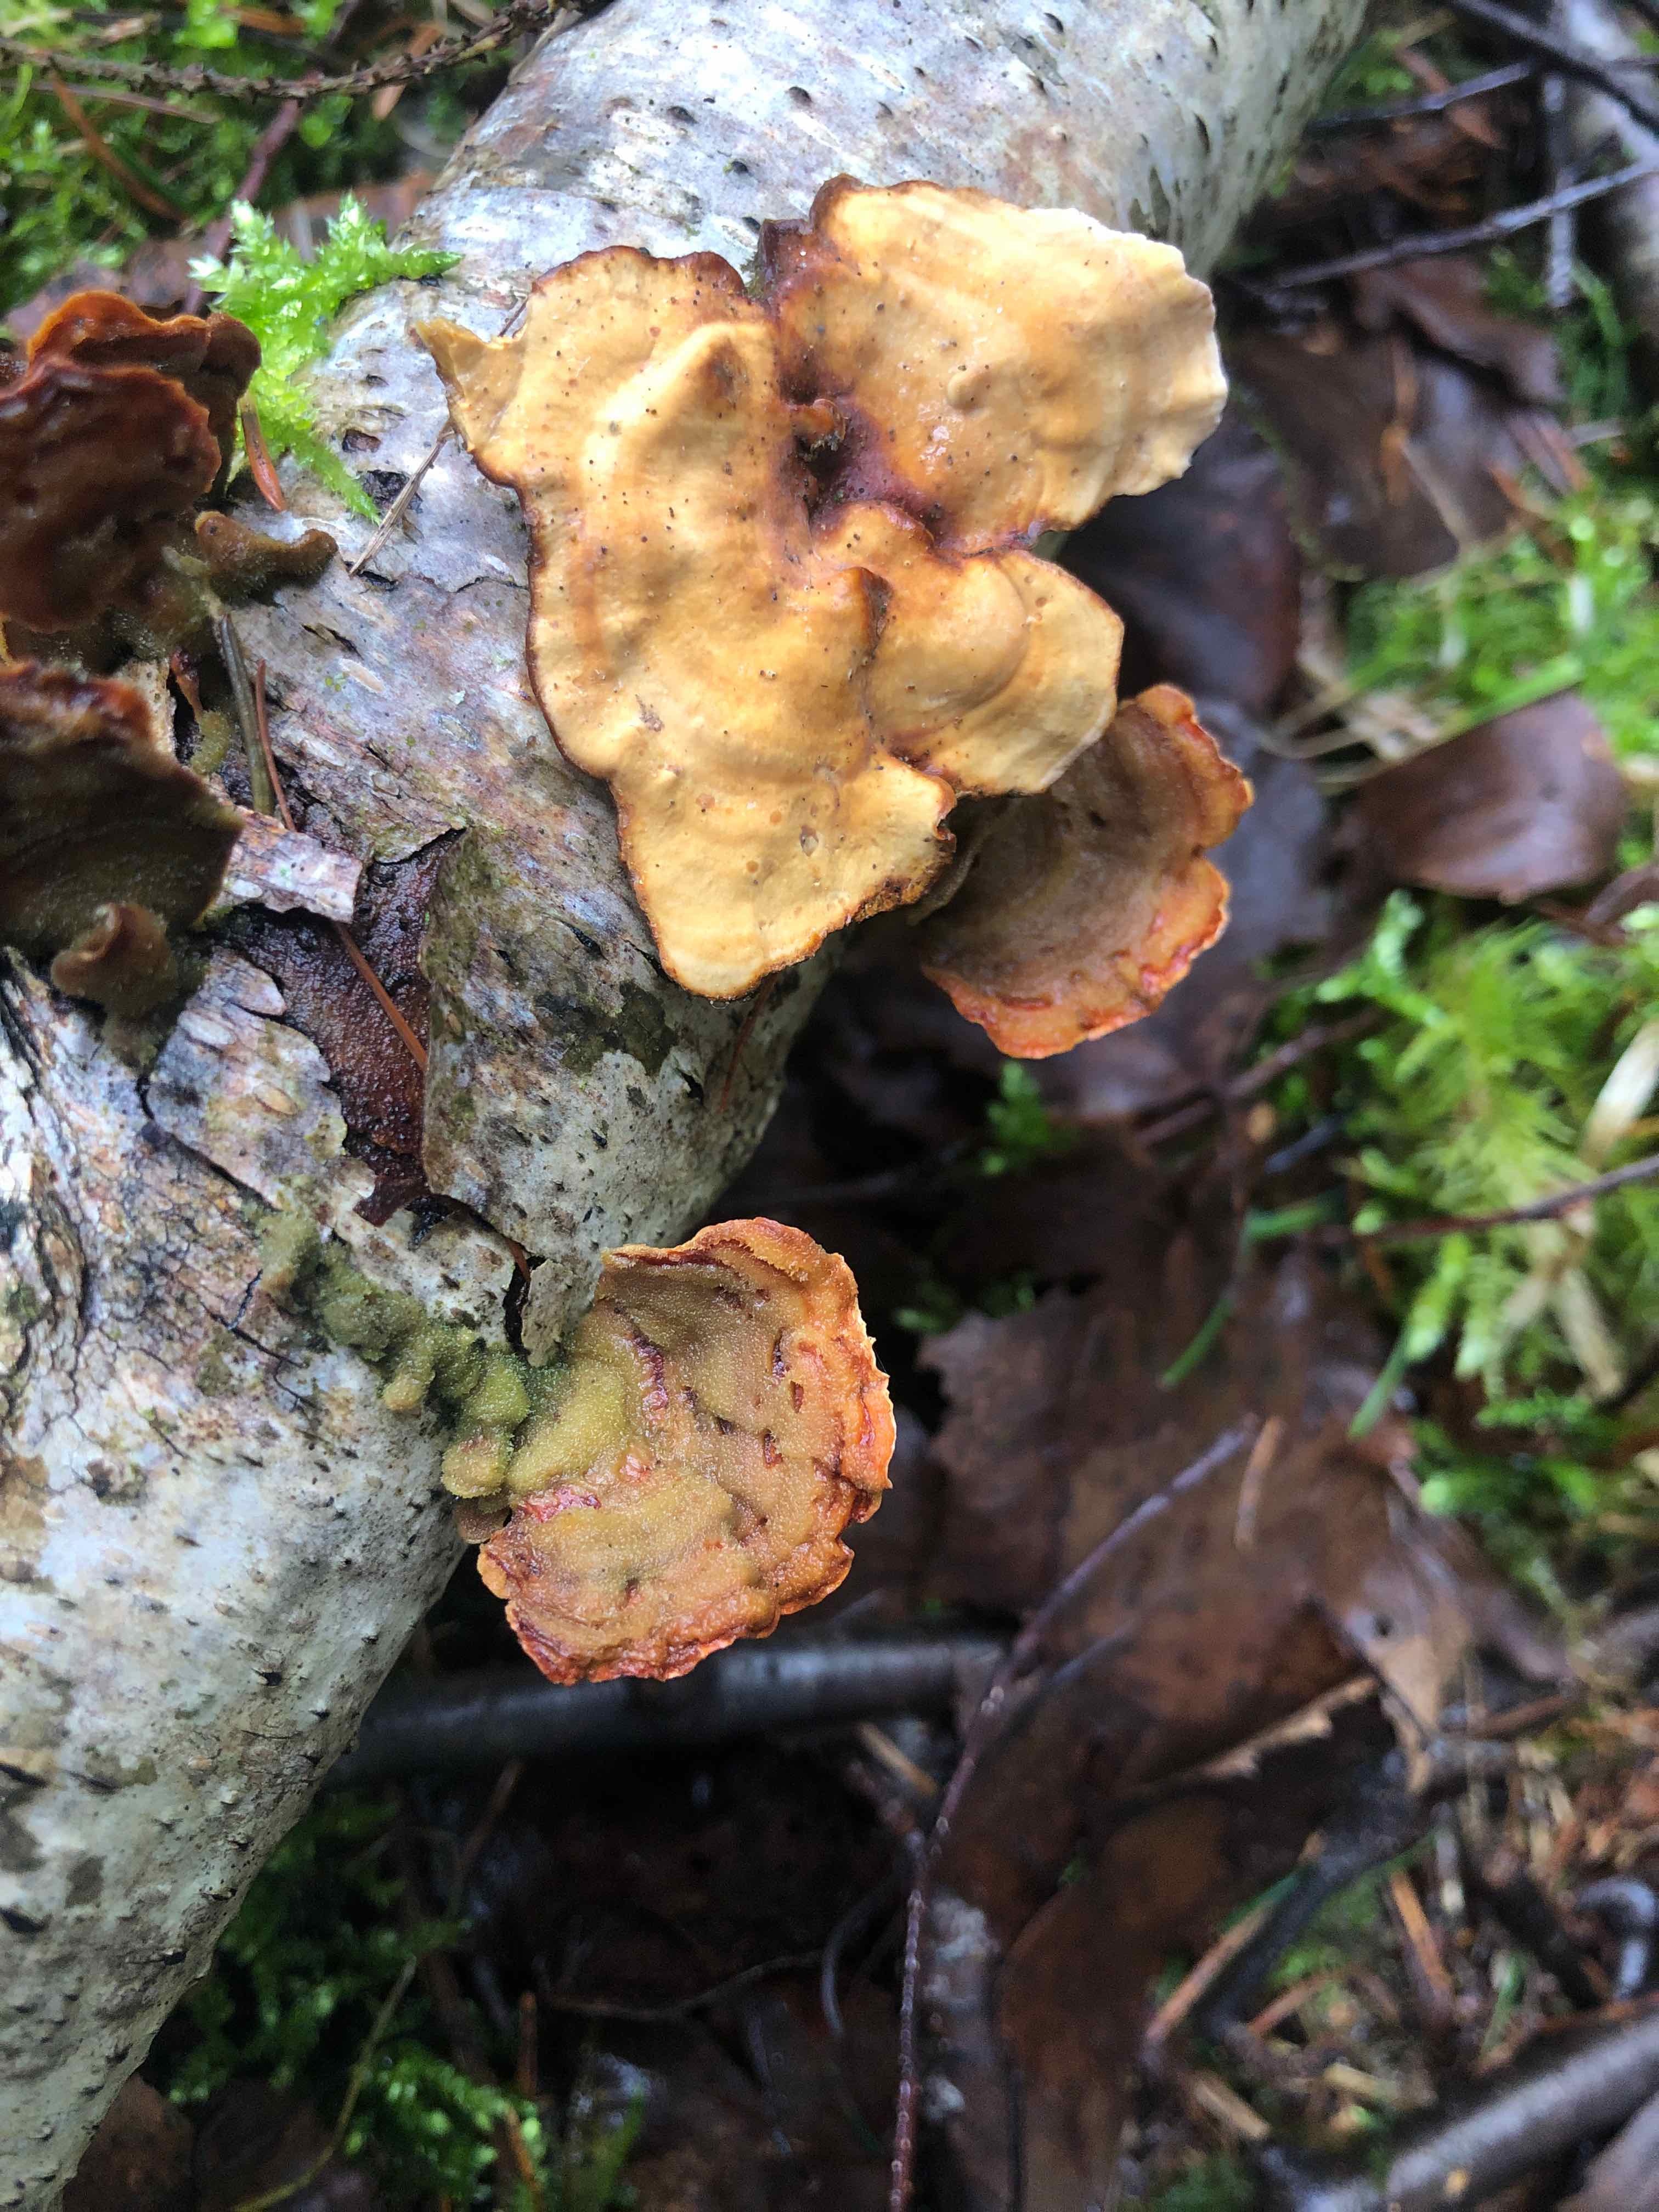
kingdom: Fungi
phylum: Basidiomycota
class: Agaricomycetes
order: Russulales
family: Stereaceae
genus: Stereum
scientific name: Stereum subtomentosum
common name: smuk lædersvamp
